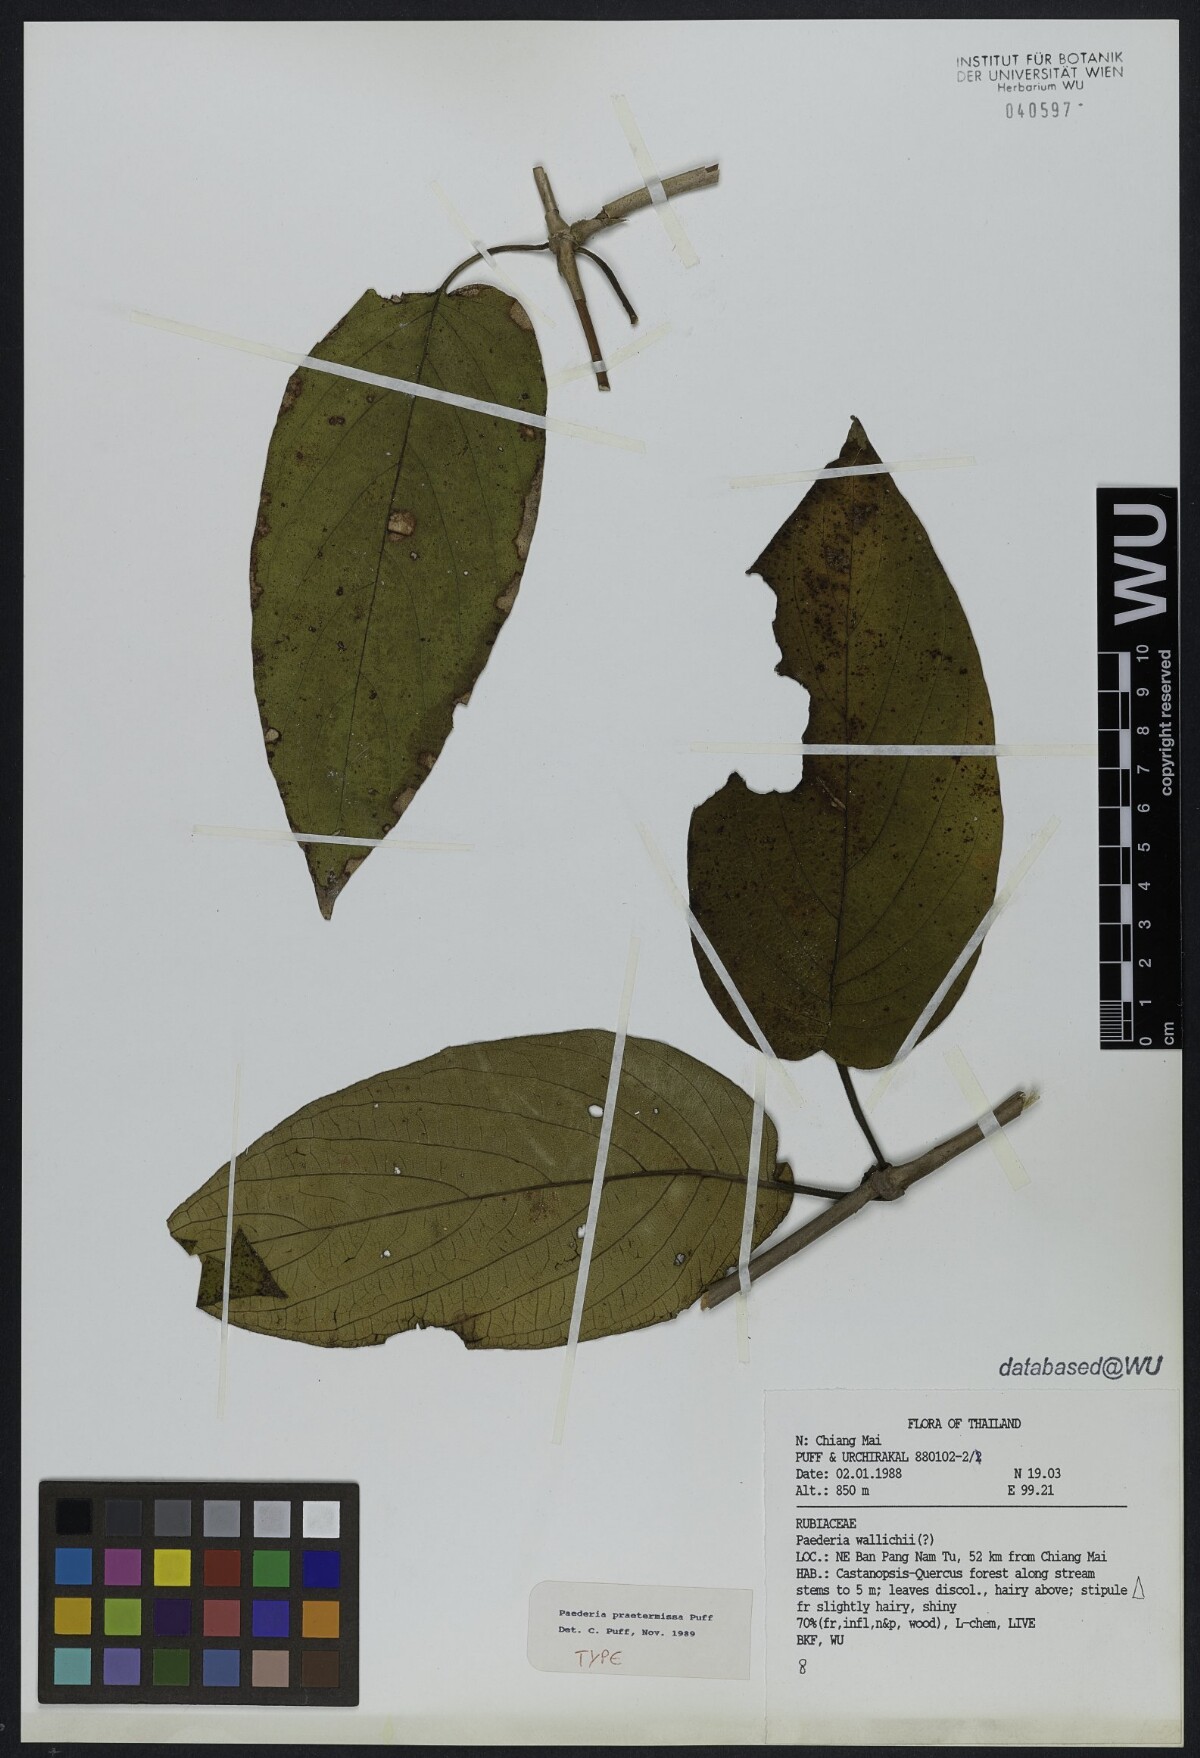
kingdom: Plantae
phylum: Tracheophyta
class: Magnoliopsida
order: Gentianales
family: Rubiaceae
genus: Paederia
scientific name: Paederia praetermissa
